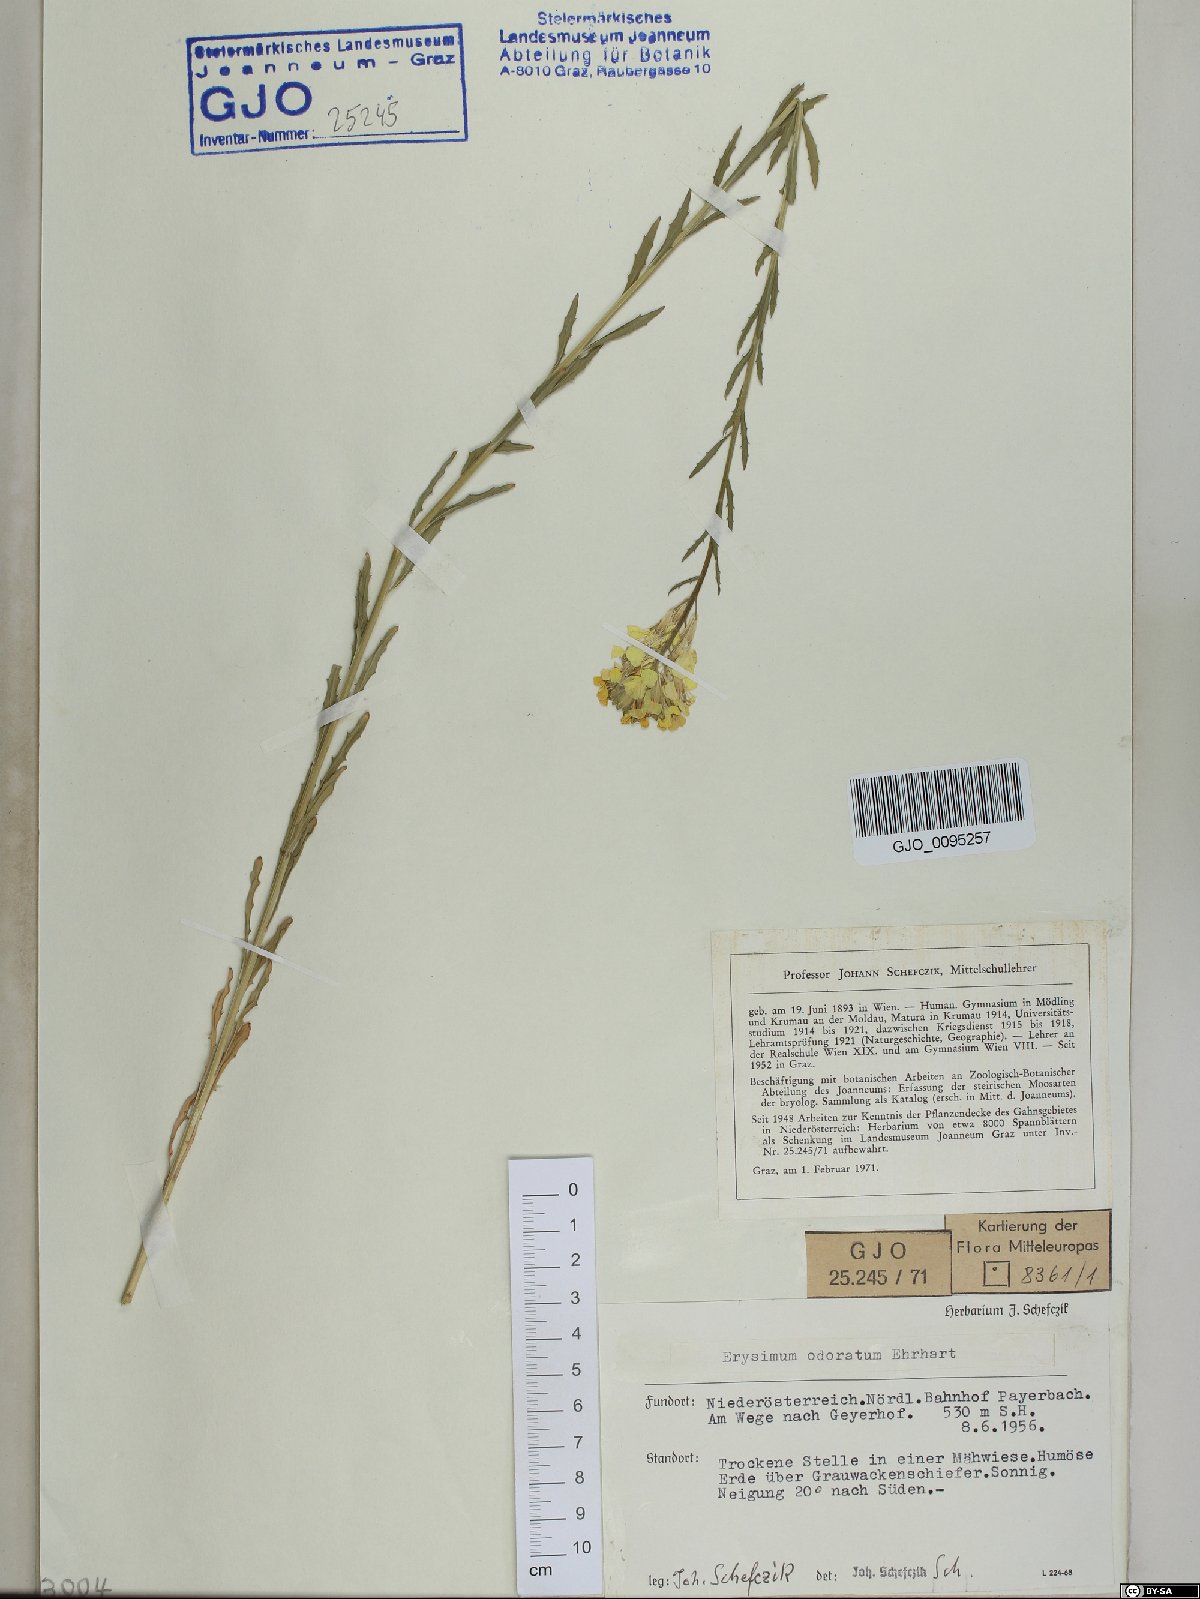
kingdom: Plantae
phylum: Tracheophyta
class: Magnoliopsida
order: Brassicales
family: Brassicaceae
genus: Erysimum
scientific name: Erysimum odoratum
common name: Smelly wallflower
